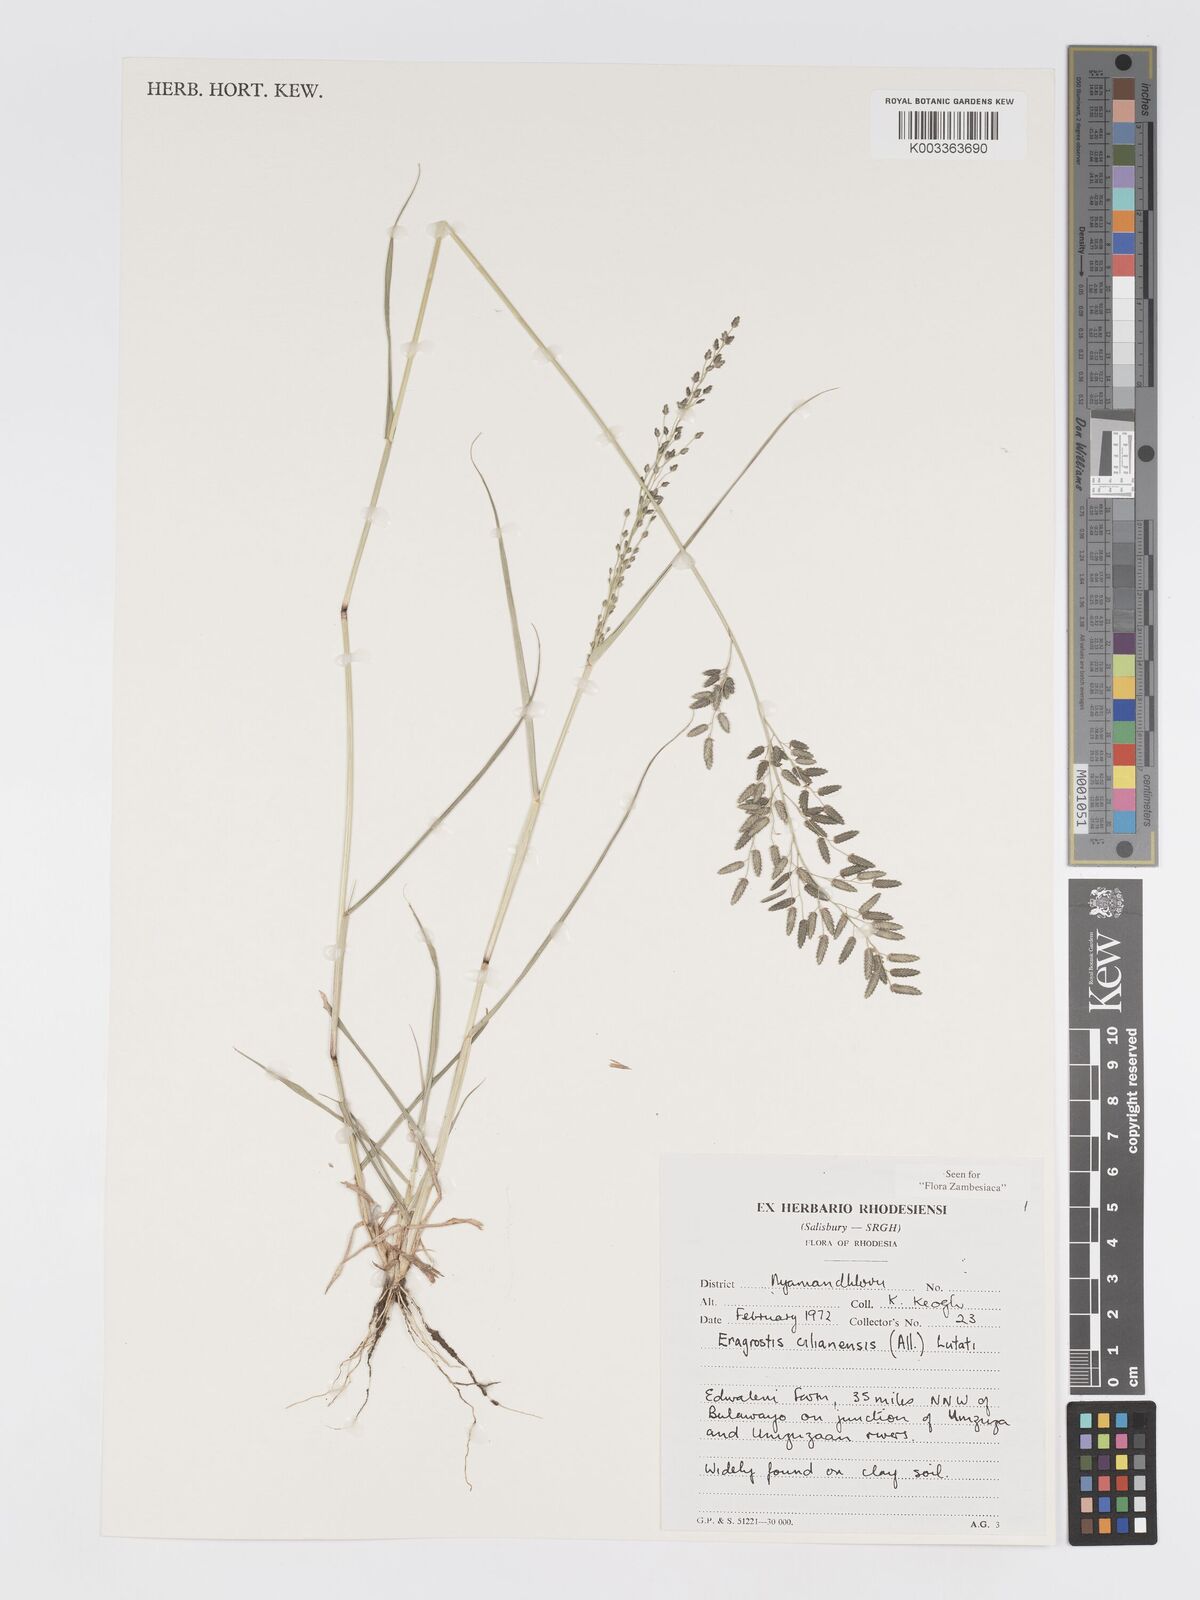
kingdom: Plantae
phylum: Tracheophyta
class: Liliopsida
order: Poales
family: Poaceae
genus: Eragrostis
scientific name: Eragrostis cilianensis
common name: Stinkgrass
